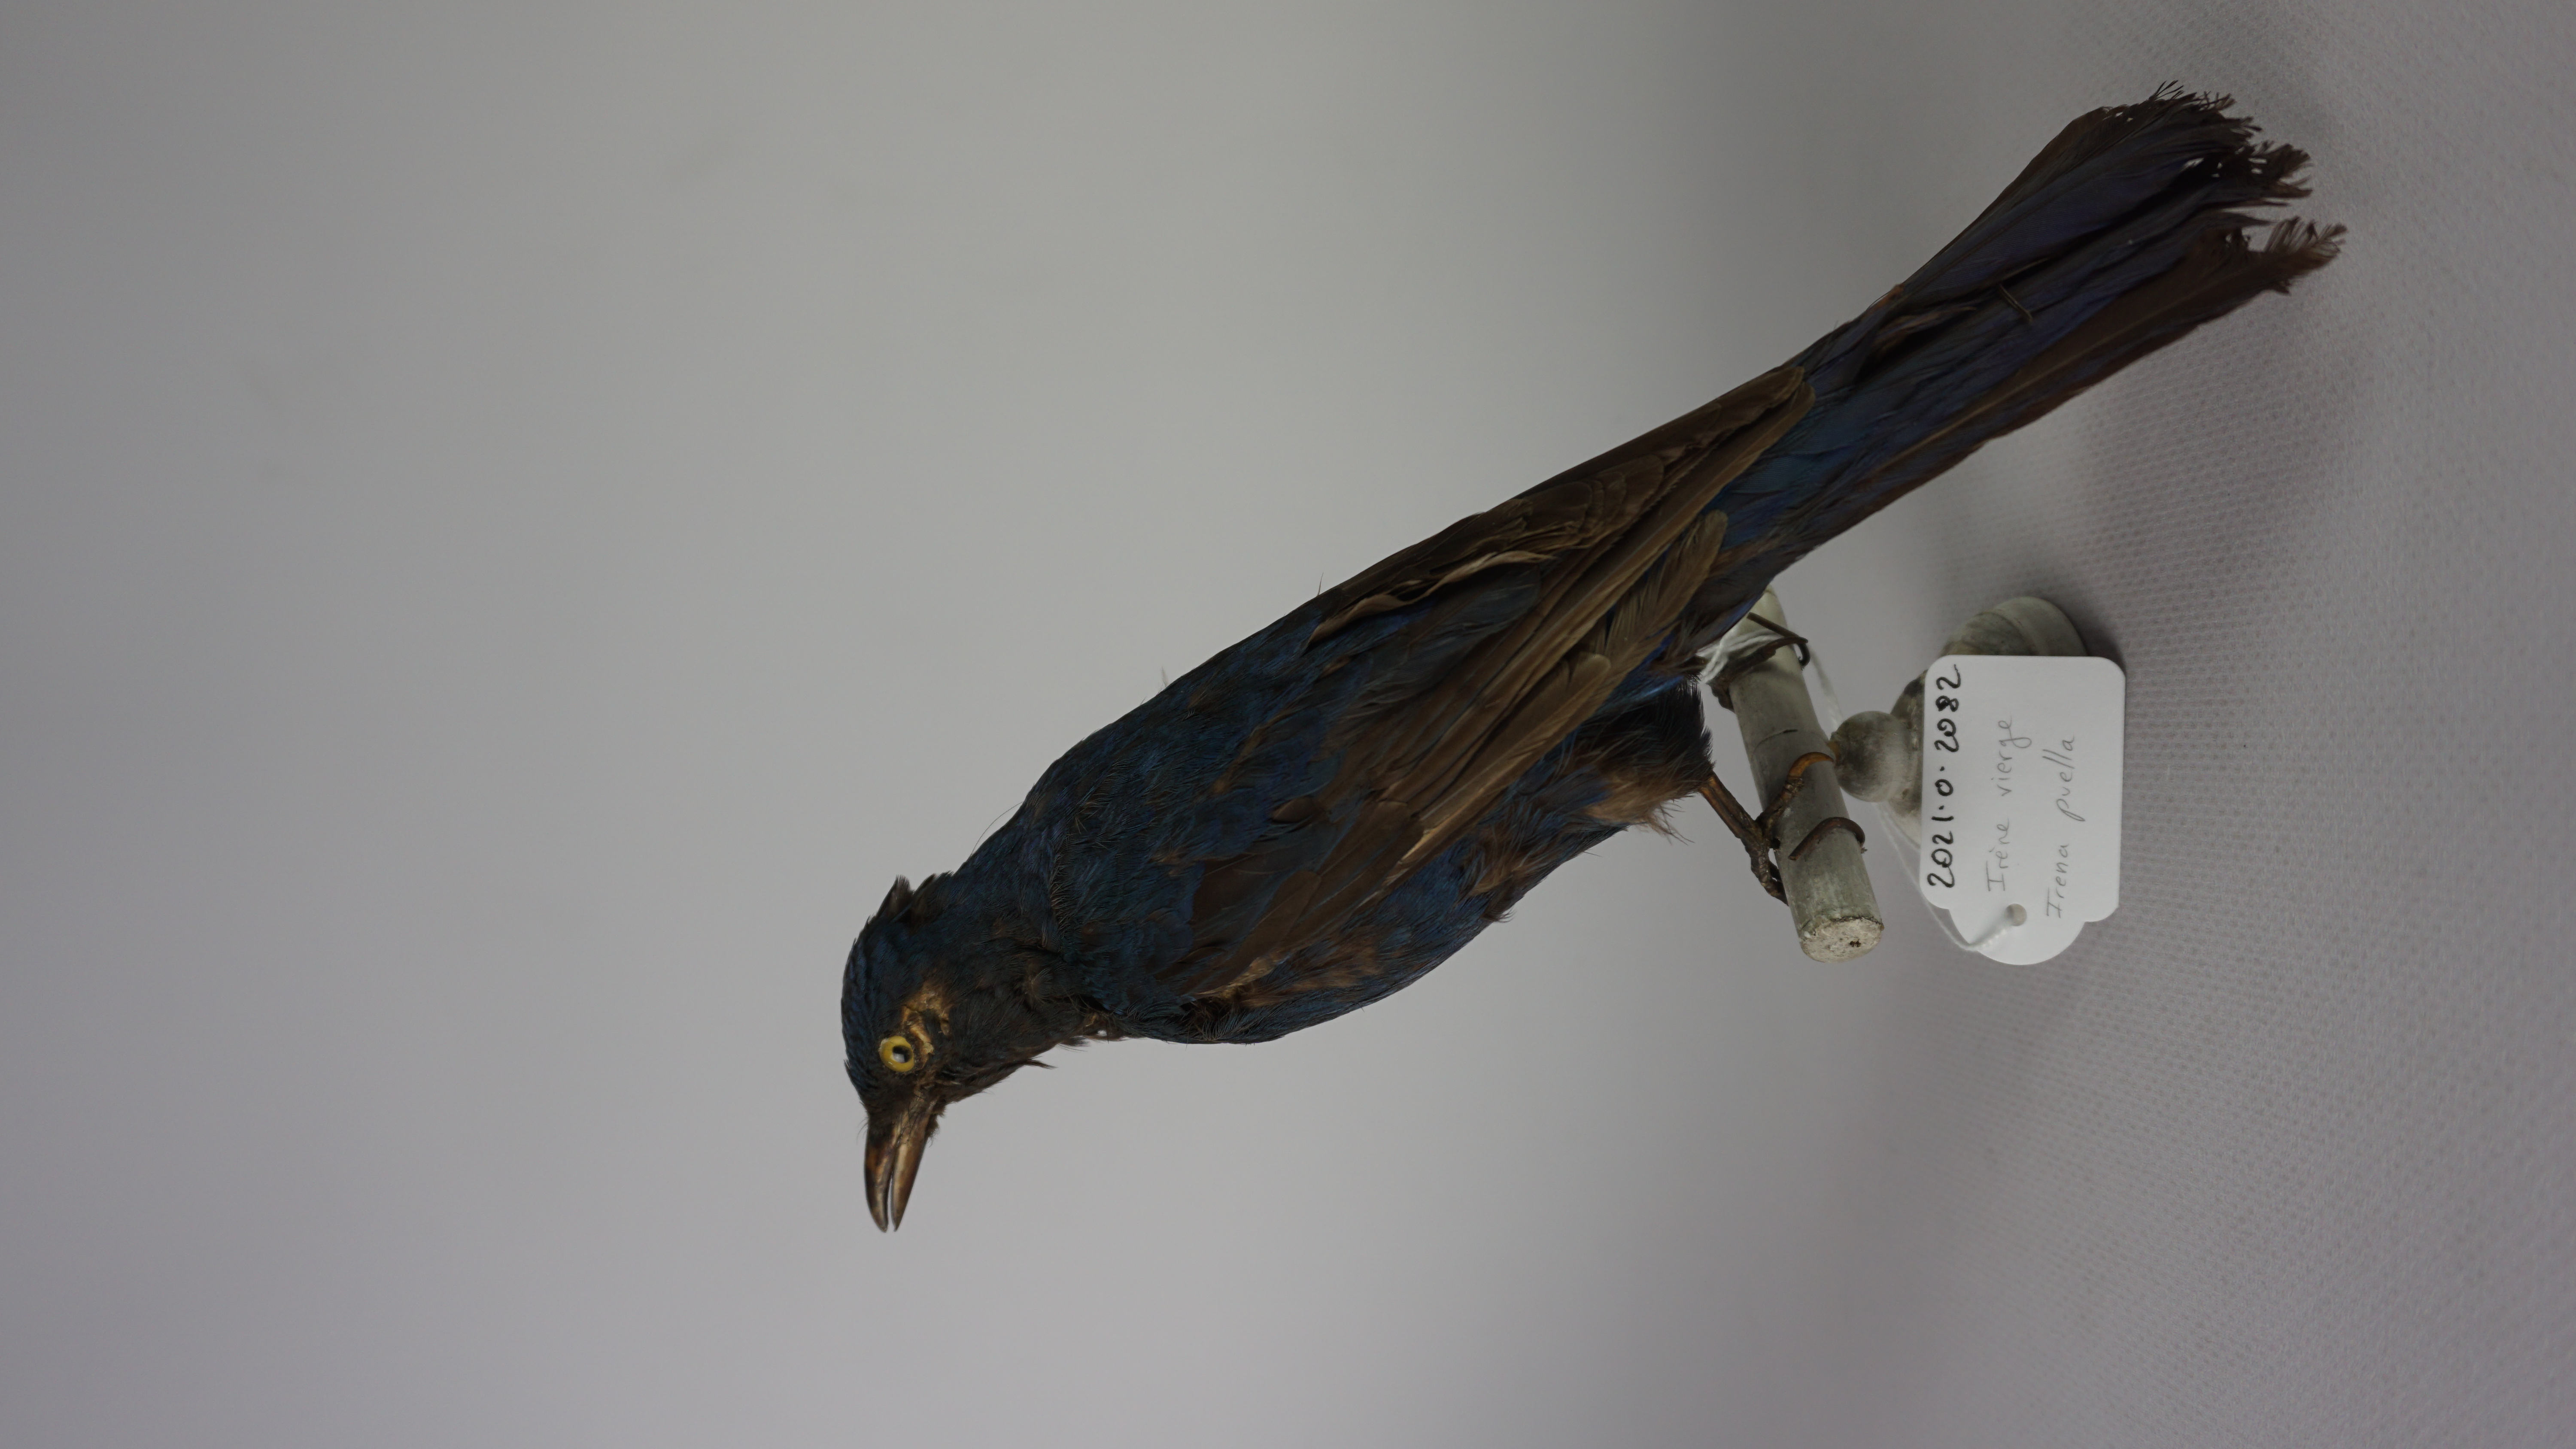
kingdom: Animalia
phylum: Chordata
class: Aves
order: Passeriformes
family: Irenidae
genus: Irena
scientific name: Irena puella
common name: Asian fairy-bluebird
